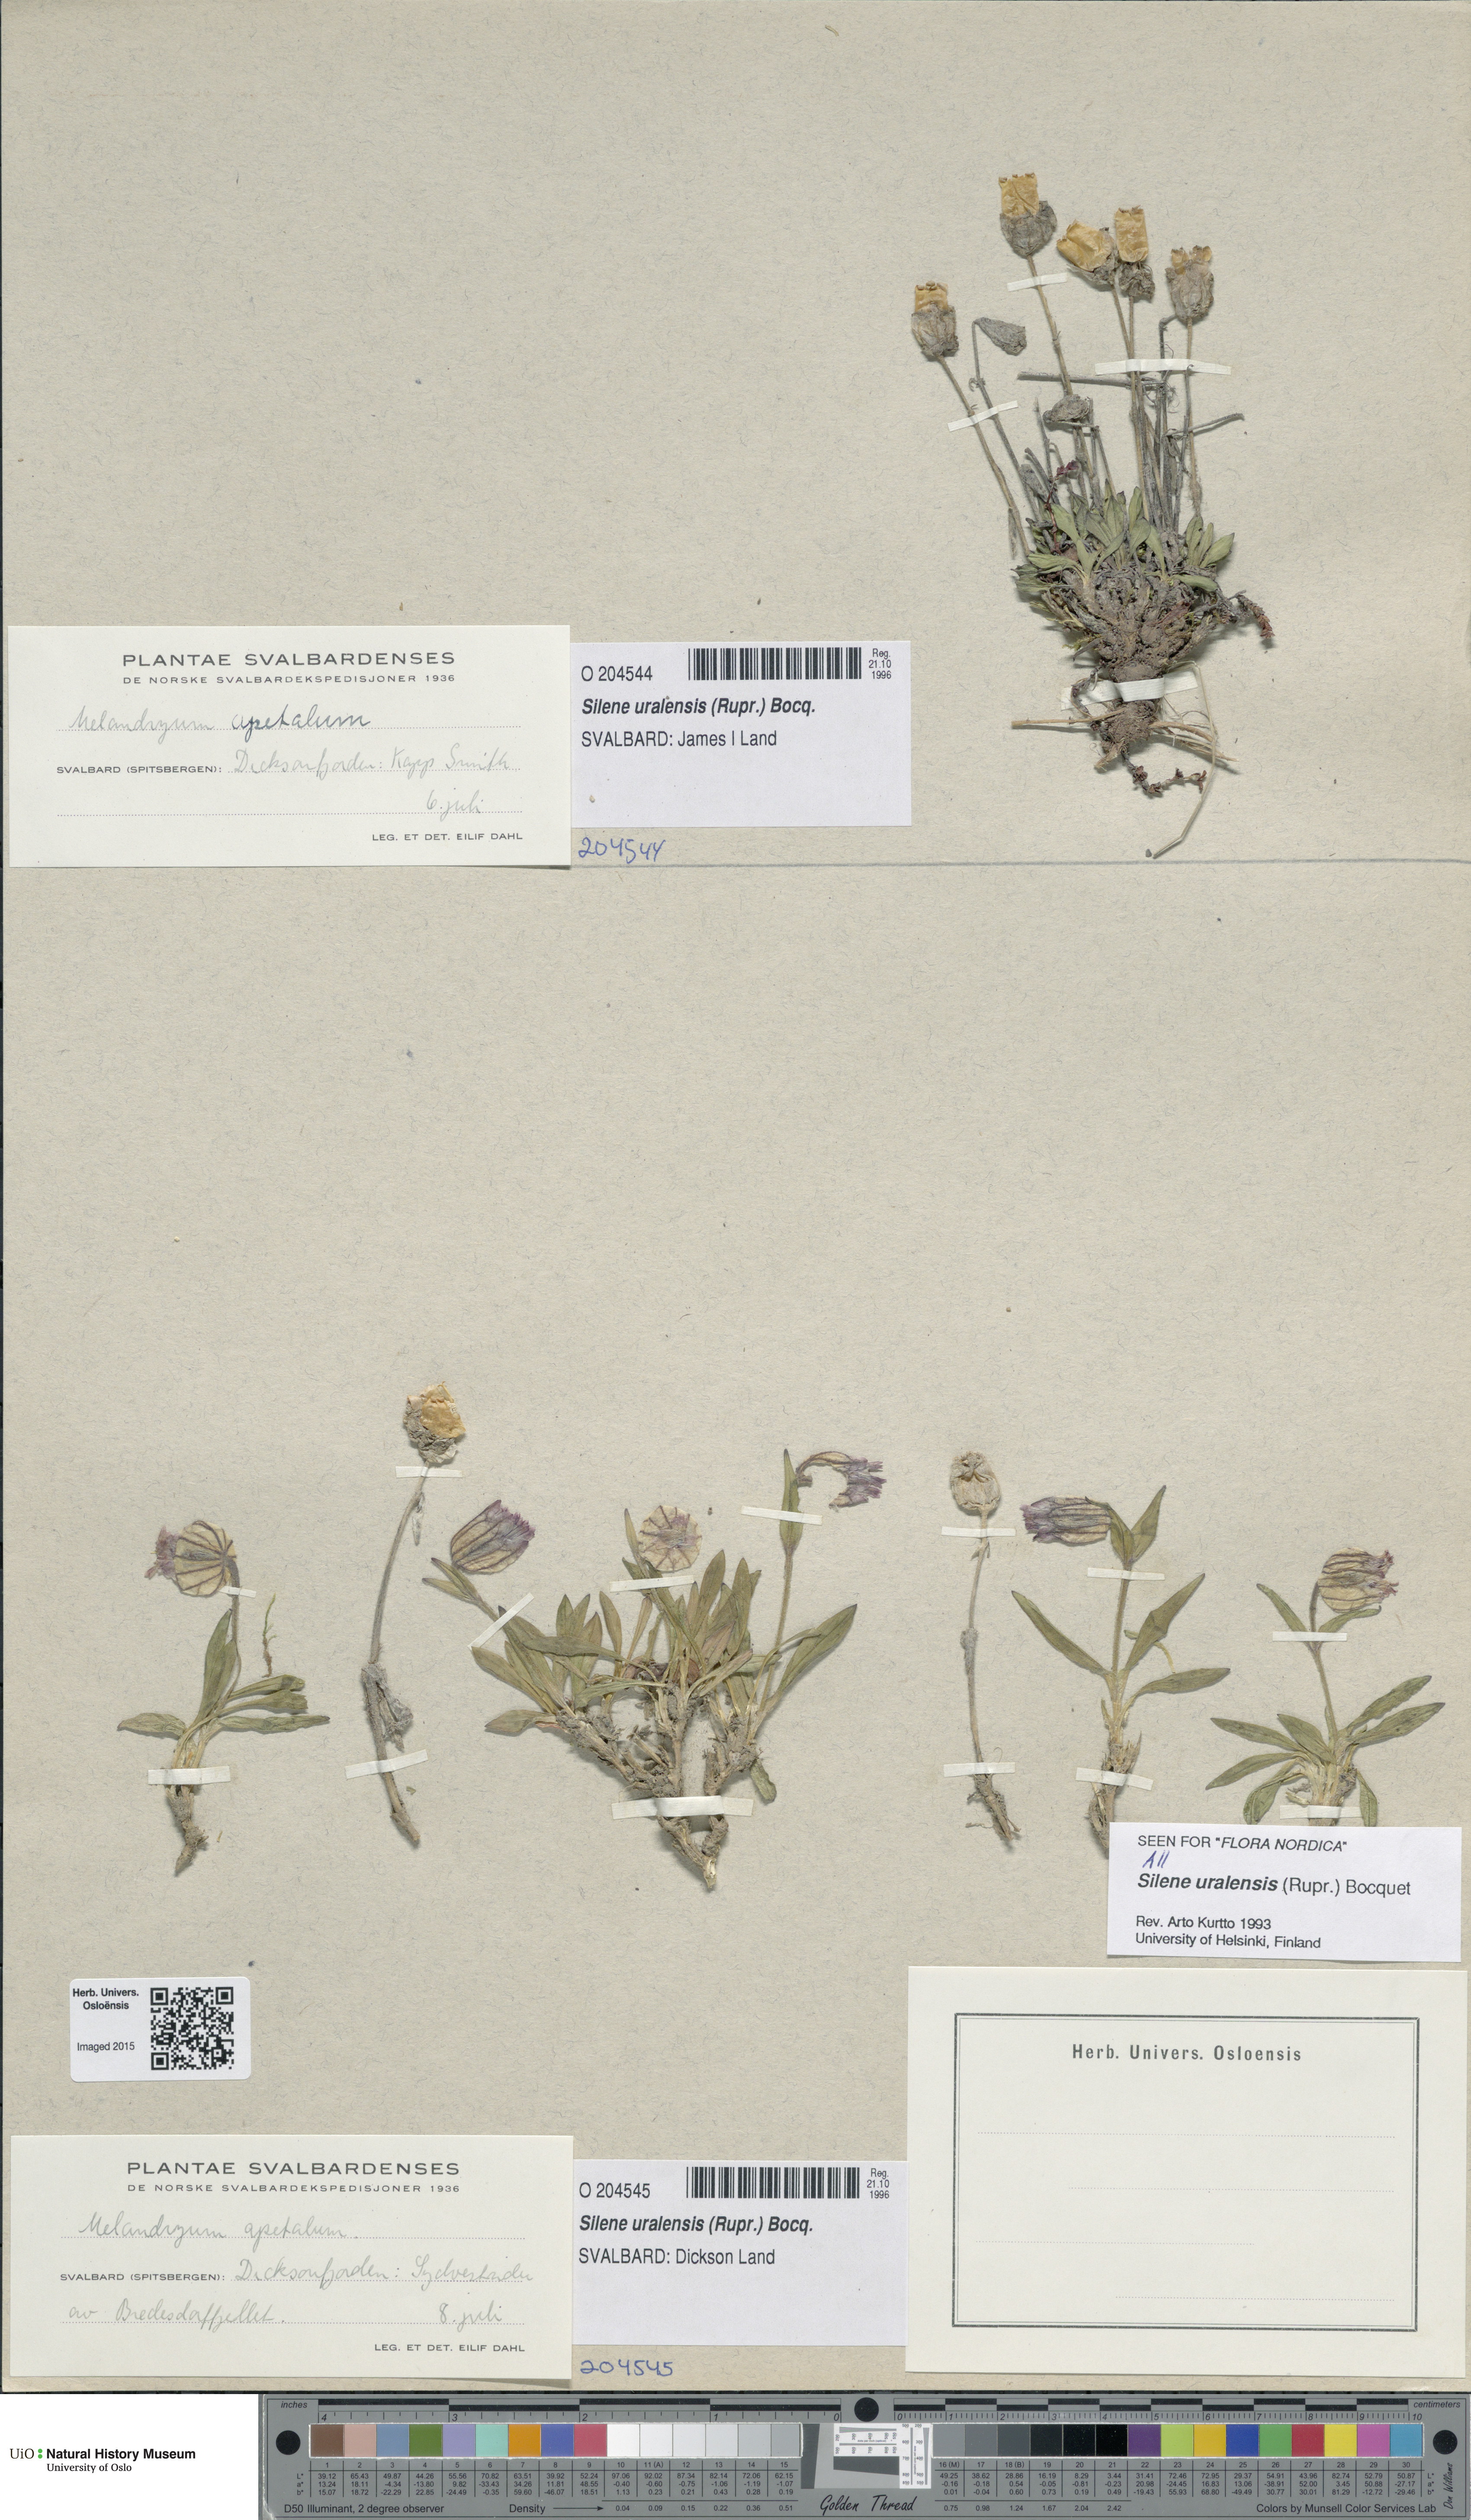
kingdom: Plantae
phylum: Tracheophyta
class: Magnoliopsida
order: Caryophyllales
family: Caryophyllaceae
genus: Silene
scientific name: Silene uralensis
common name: Nodding campion
